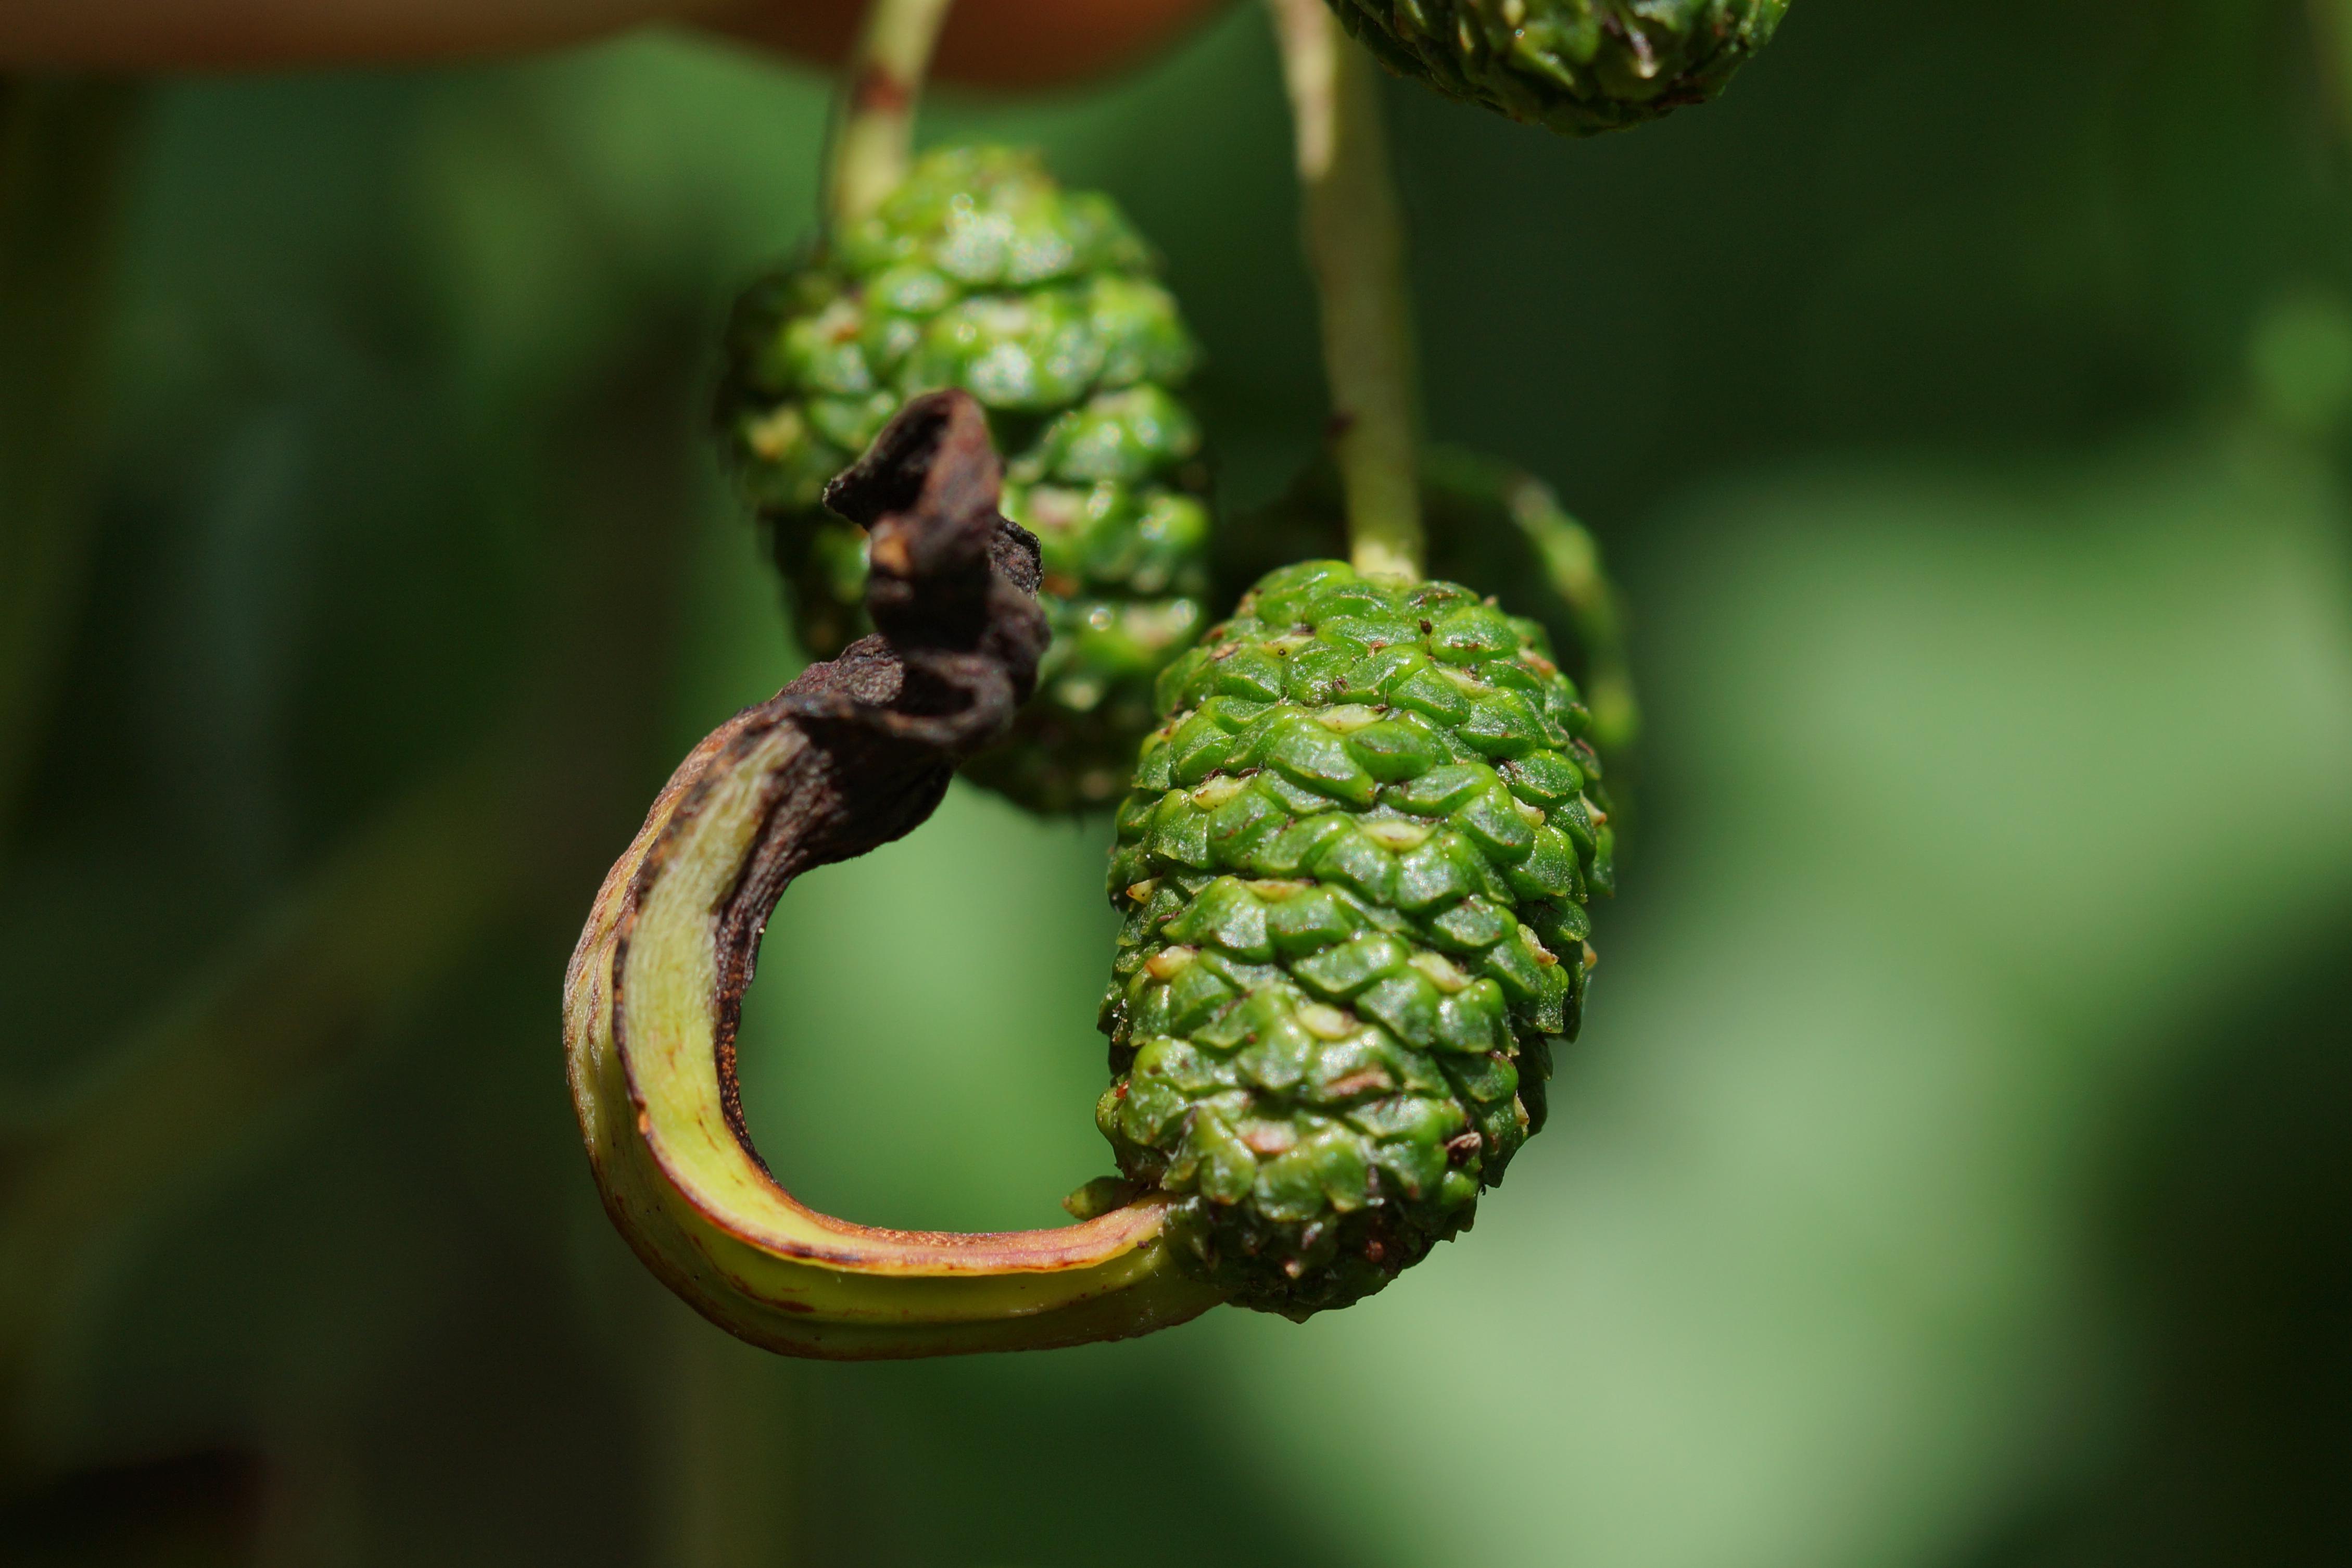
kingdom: Fungi
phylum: Ascomycota
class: Taphrinomycetes
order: Taphrinales
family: Taphrinaceae
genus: Taphrina
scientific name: Taphrina alni
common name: Alder tongue
